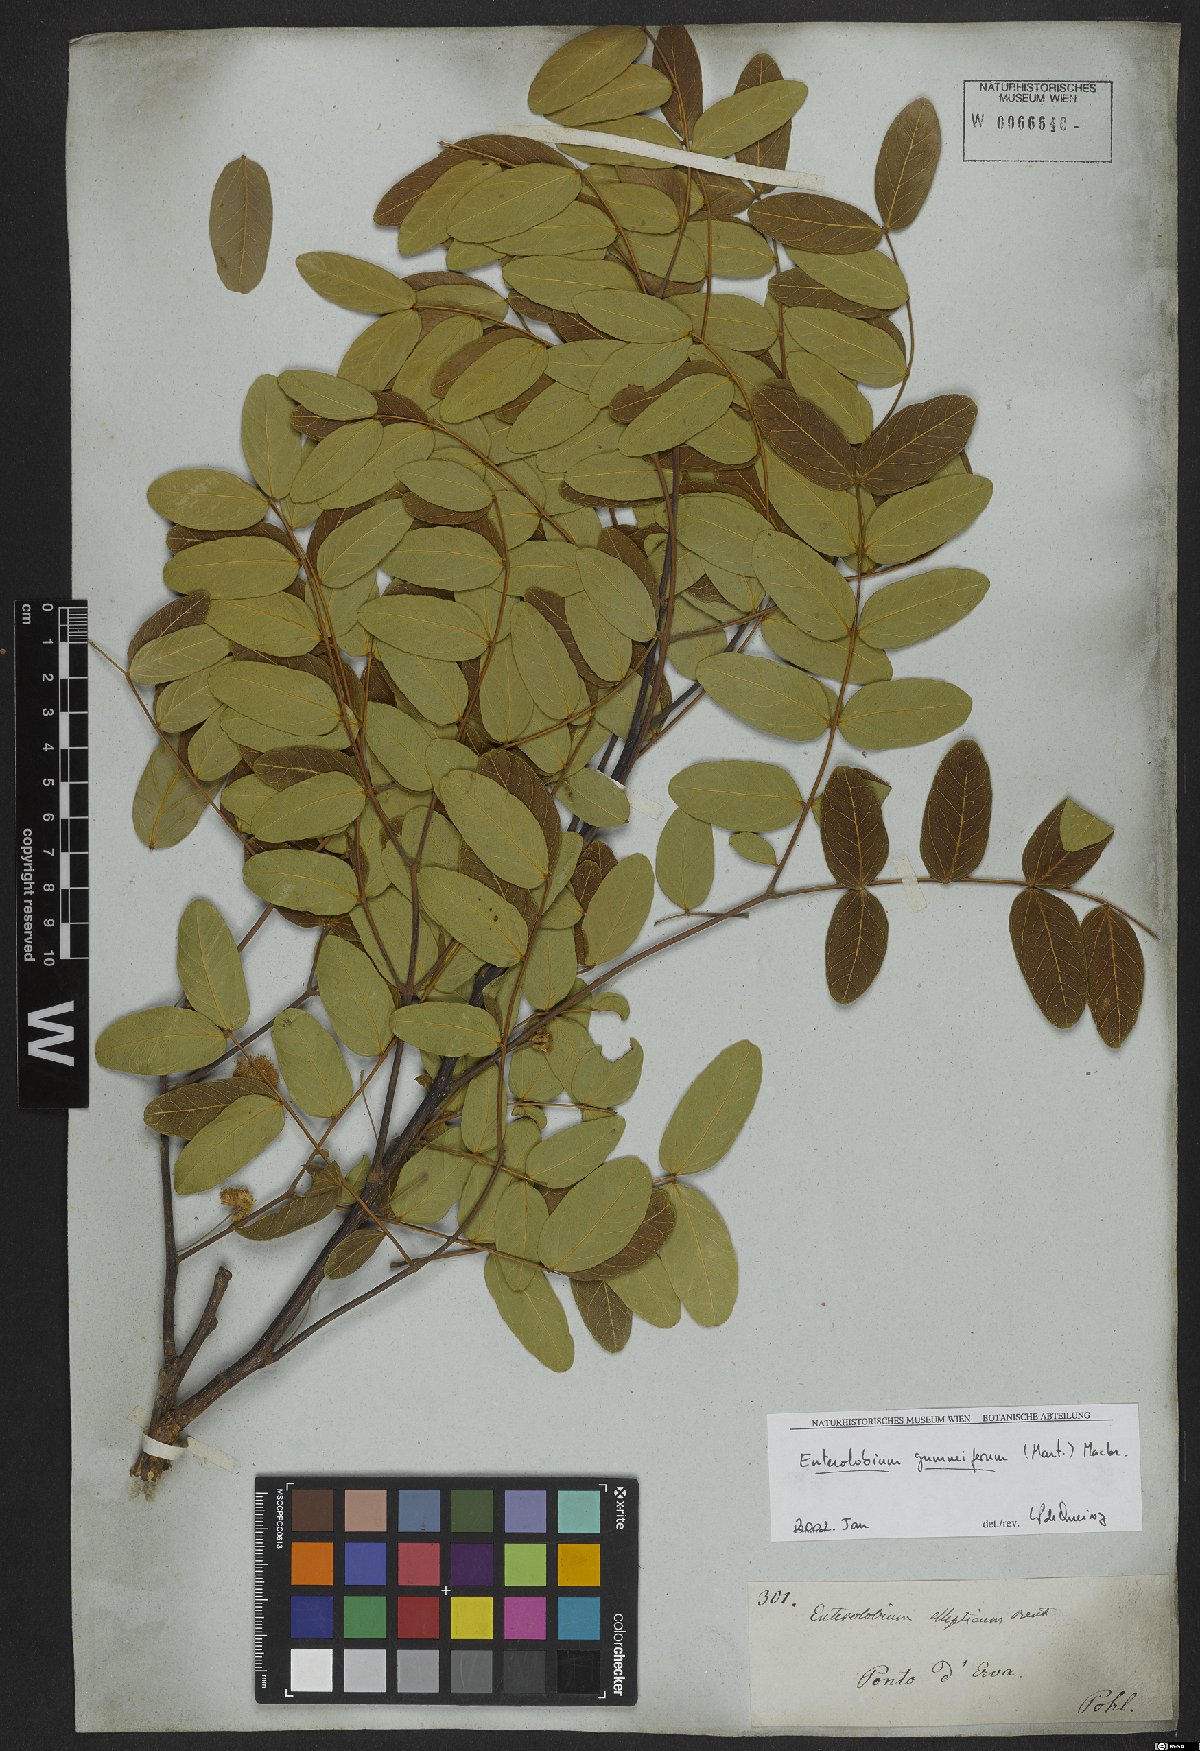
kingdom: Plantae
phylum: Tracheophyta
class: Magnoliopsida
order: Fabales
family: Fabaceae
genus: Enterolobium
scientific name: Enterolobium gummiferum
